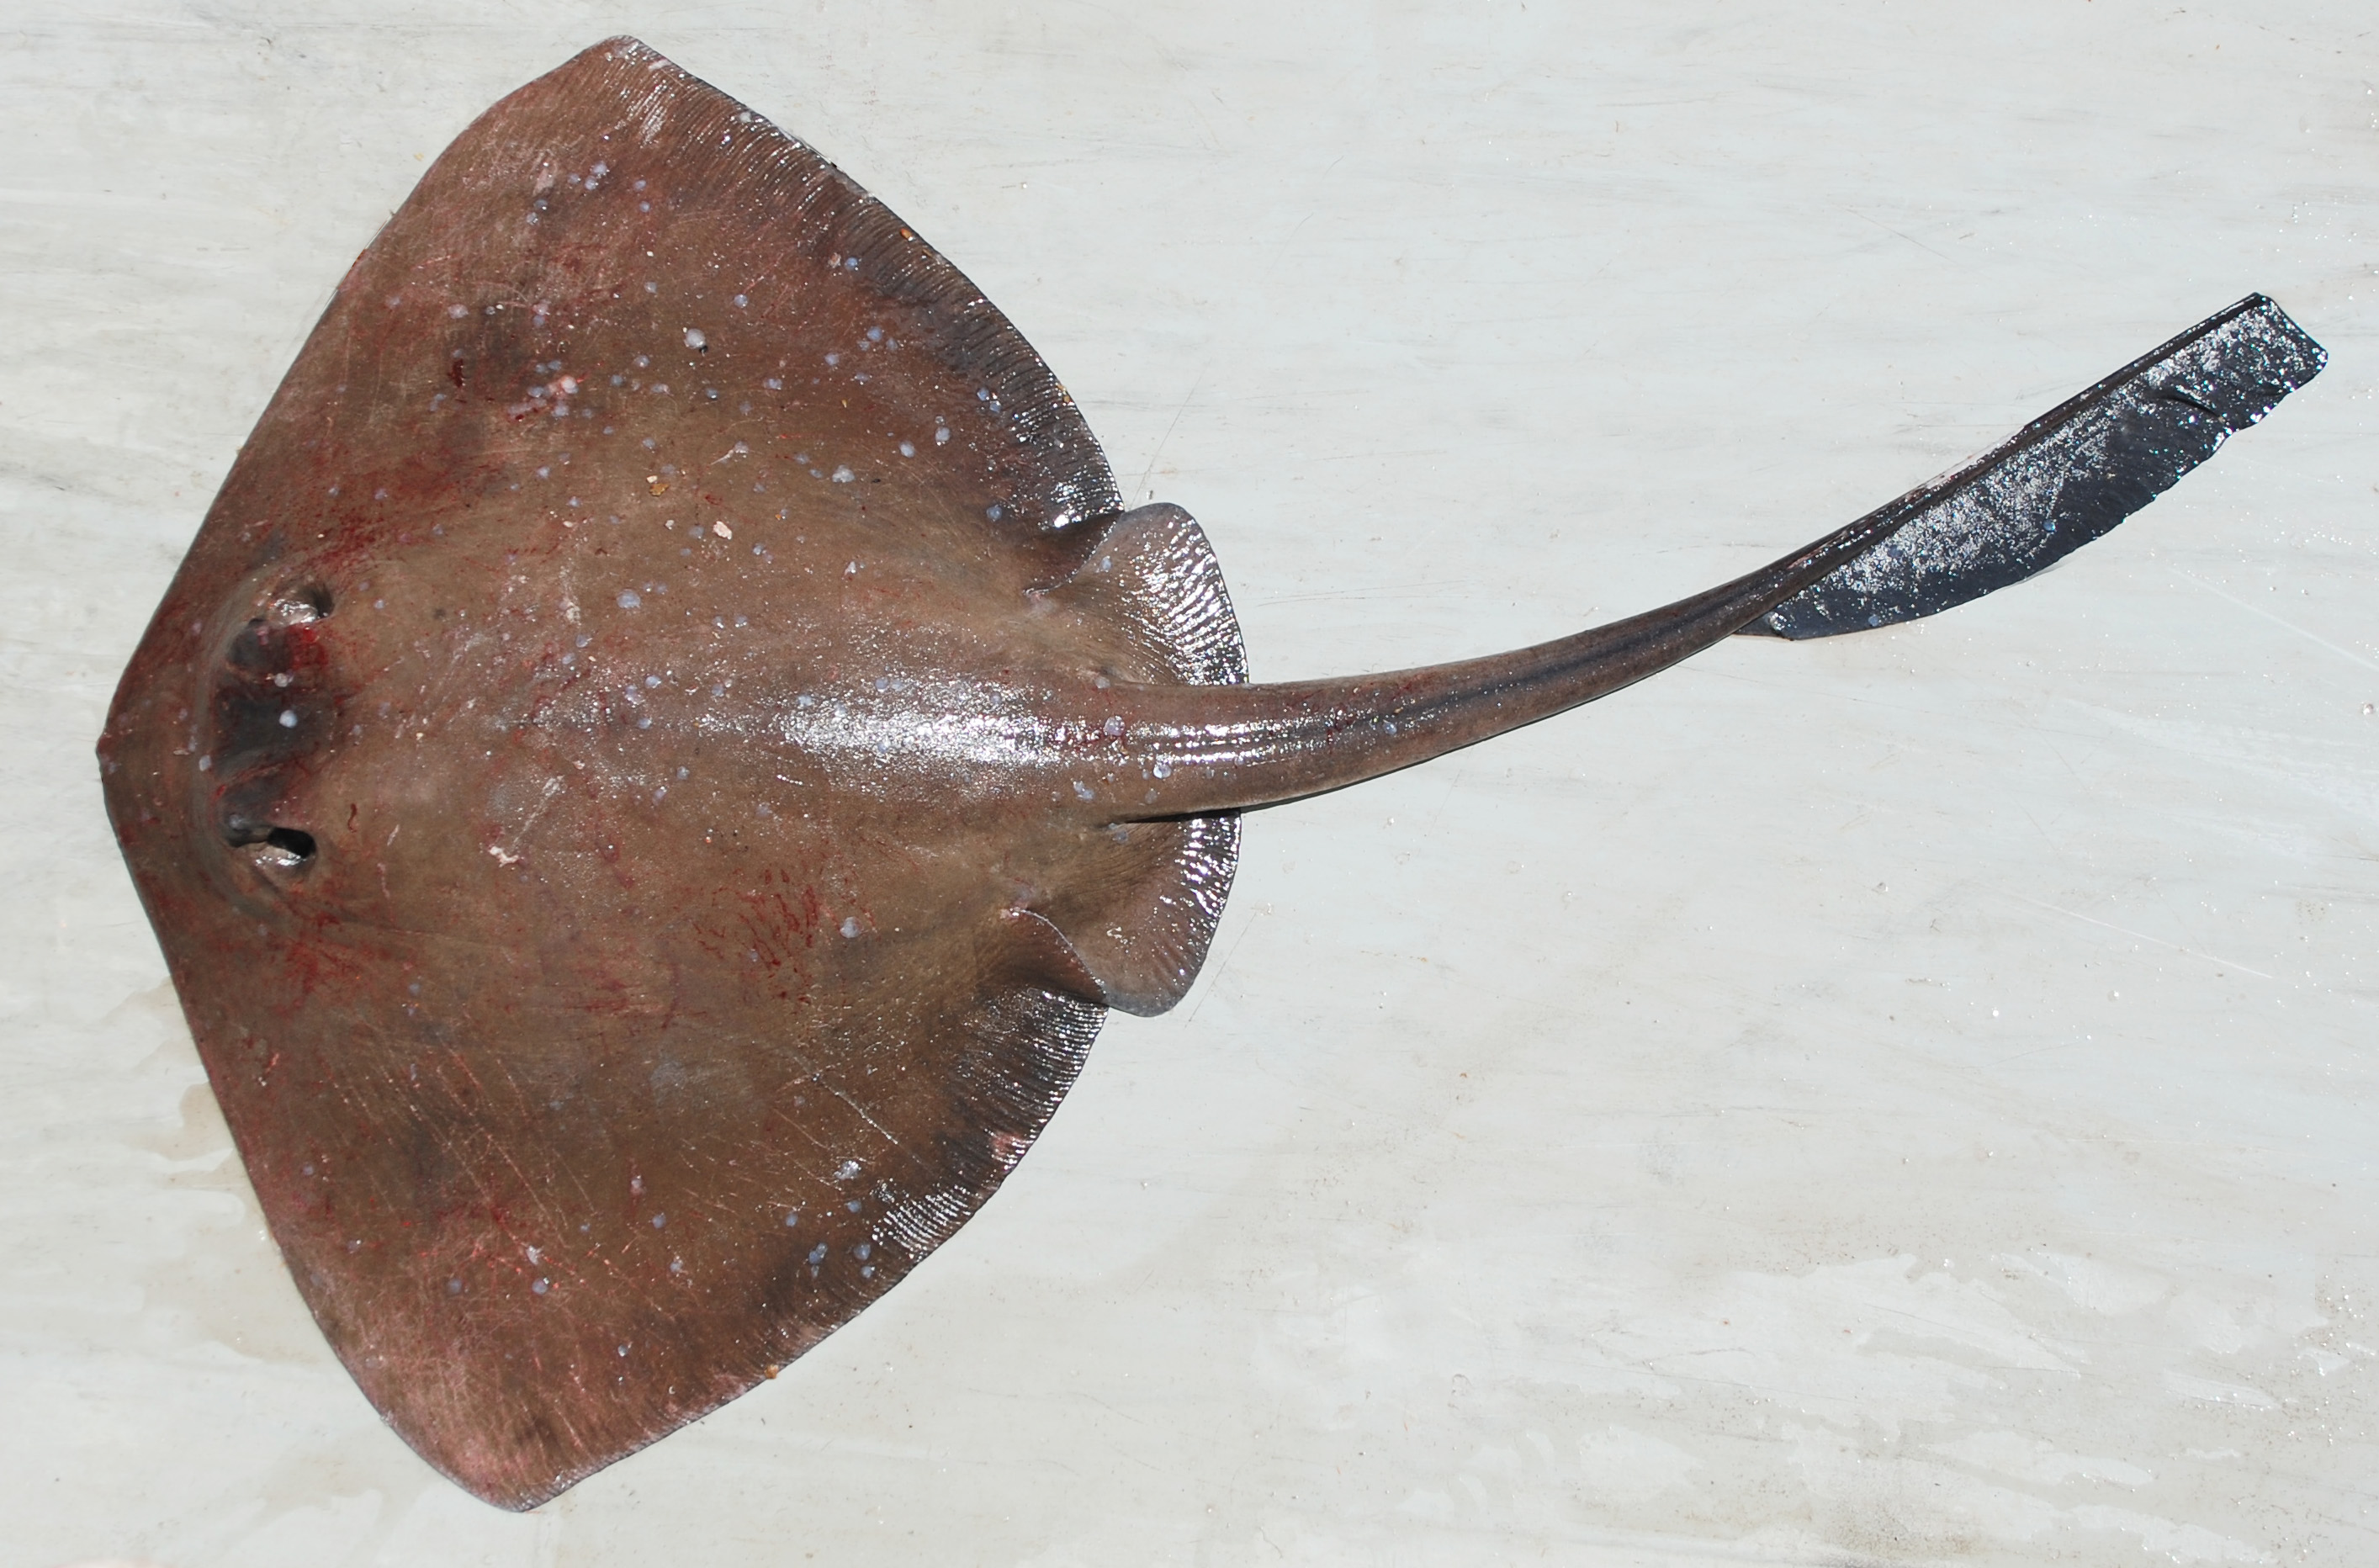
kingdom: Animalia
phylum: Chordata
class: Elasmobranchii
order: Myliobatiformes
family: Dasyatidae
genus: Pastinachus
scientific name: Pastinachus sephen
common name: Cowtail ray
